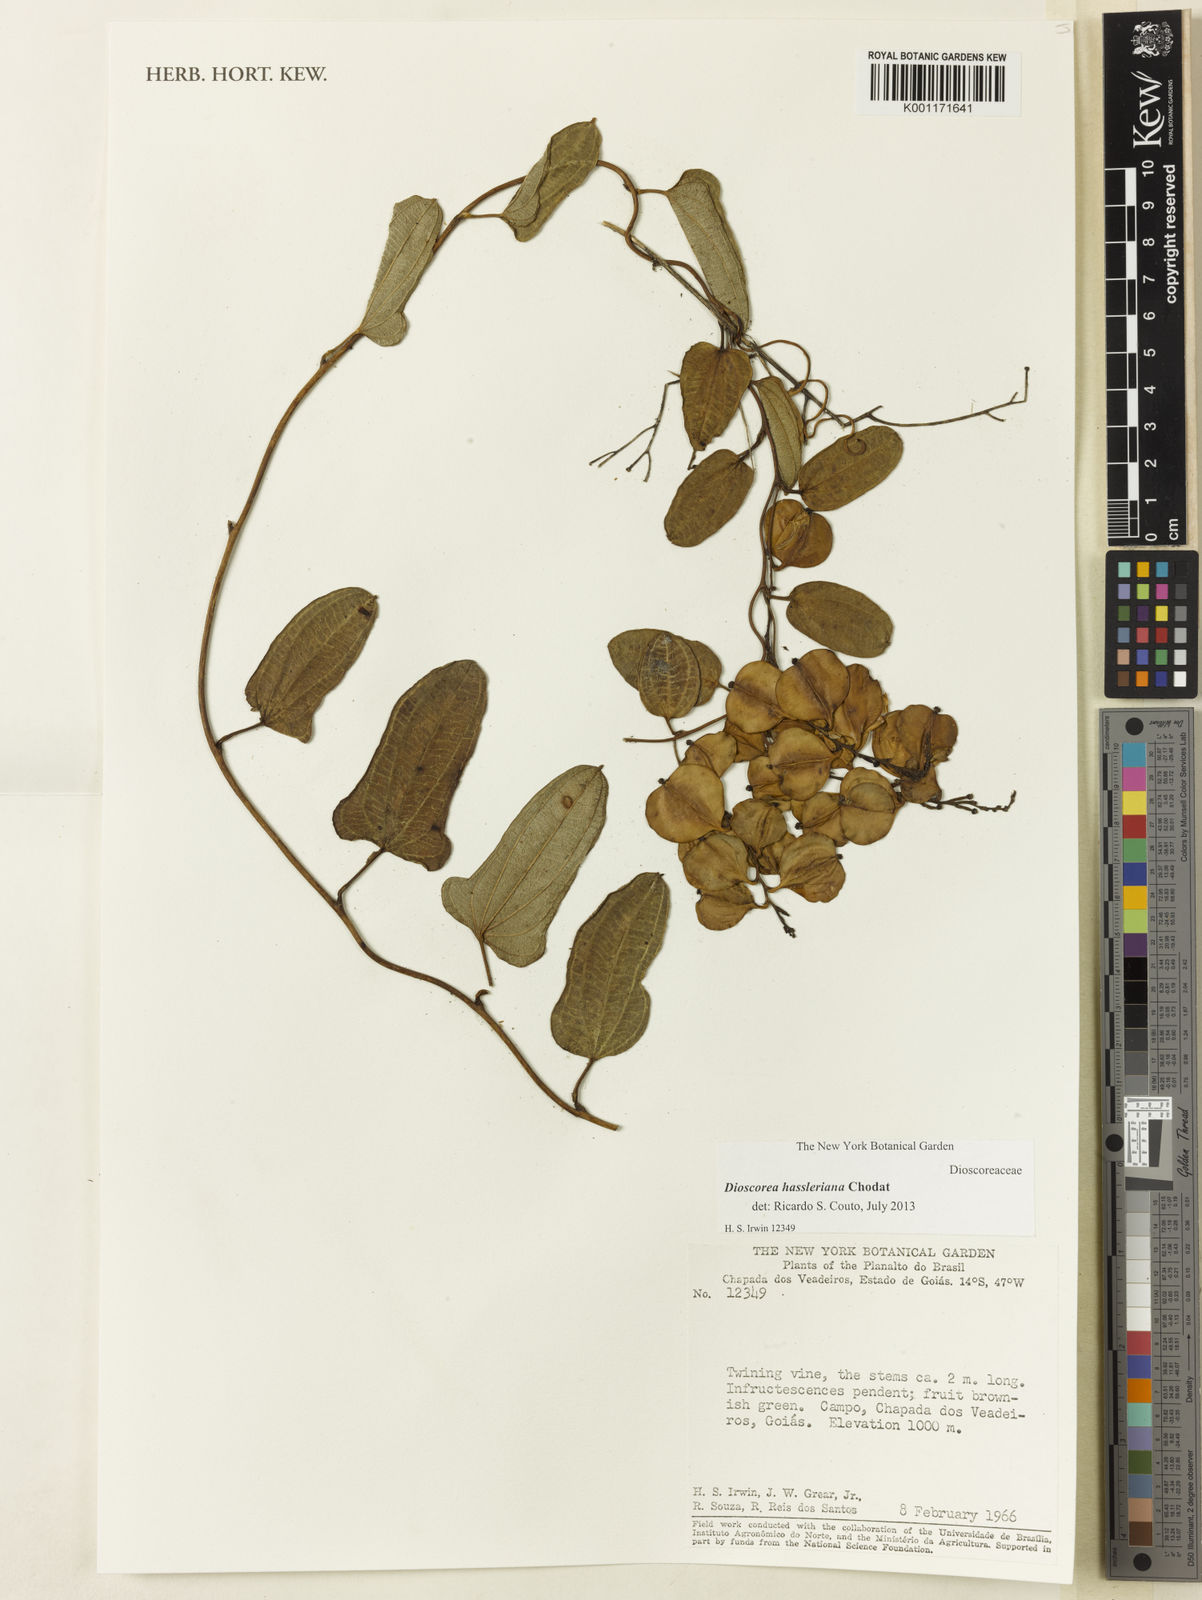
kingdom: Plantae
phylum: Tracheophyta
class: Liliopsida
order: Dioscoreales
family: Dioscoreaceae
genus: Dioscorea
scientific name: Dioscorea hassleriana
